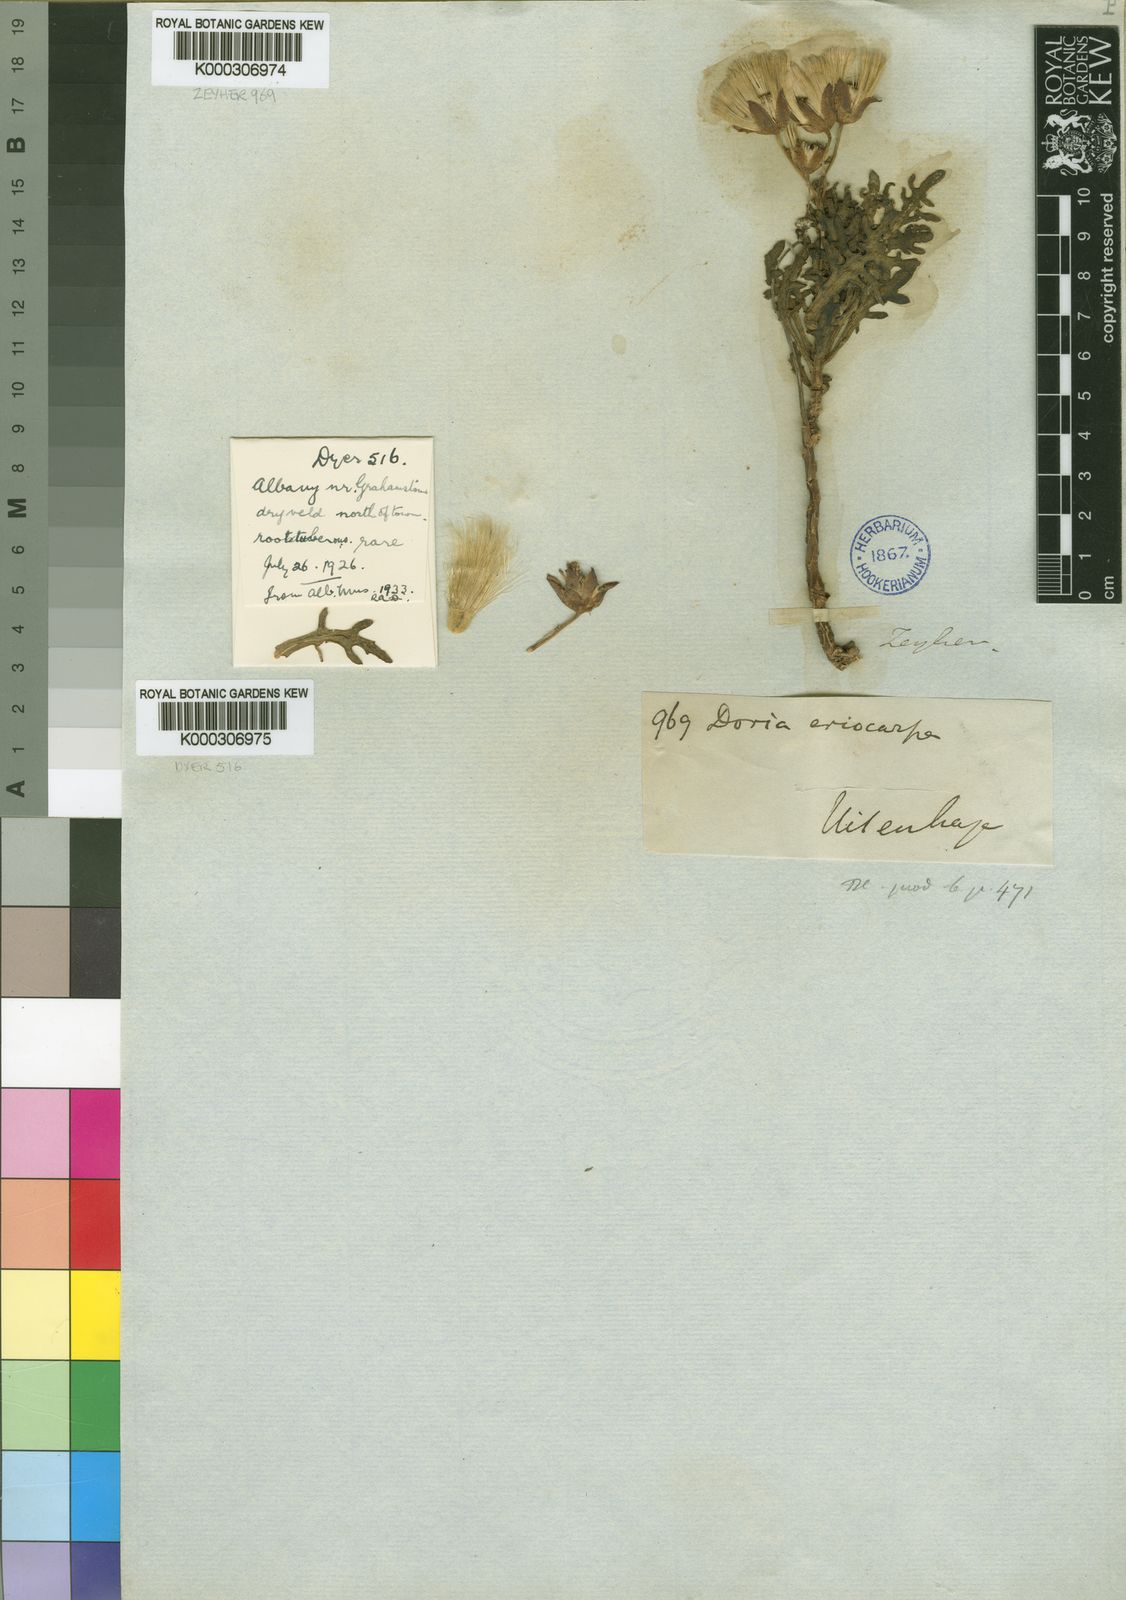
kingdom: Plantae
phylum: Tracheophyta
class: Magnoliopsida
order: Asterales
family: Asteraceae
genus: Othonna
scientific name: Othonna eriocarpa
